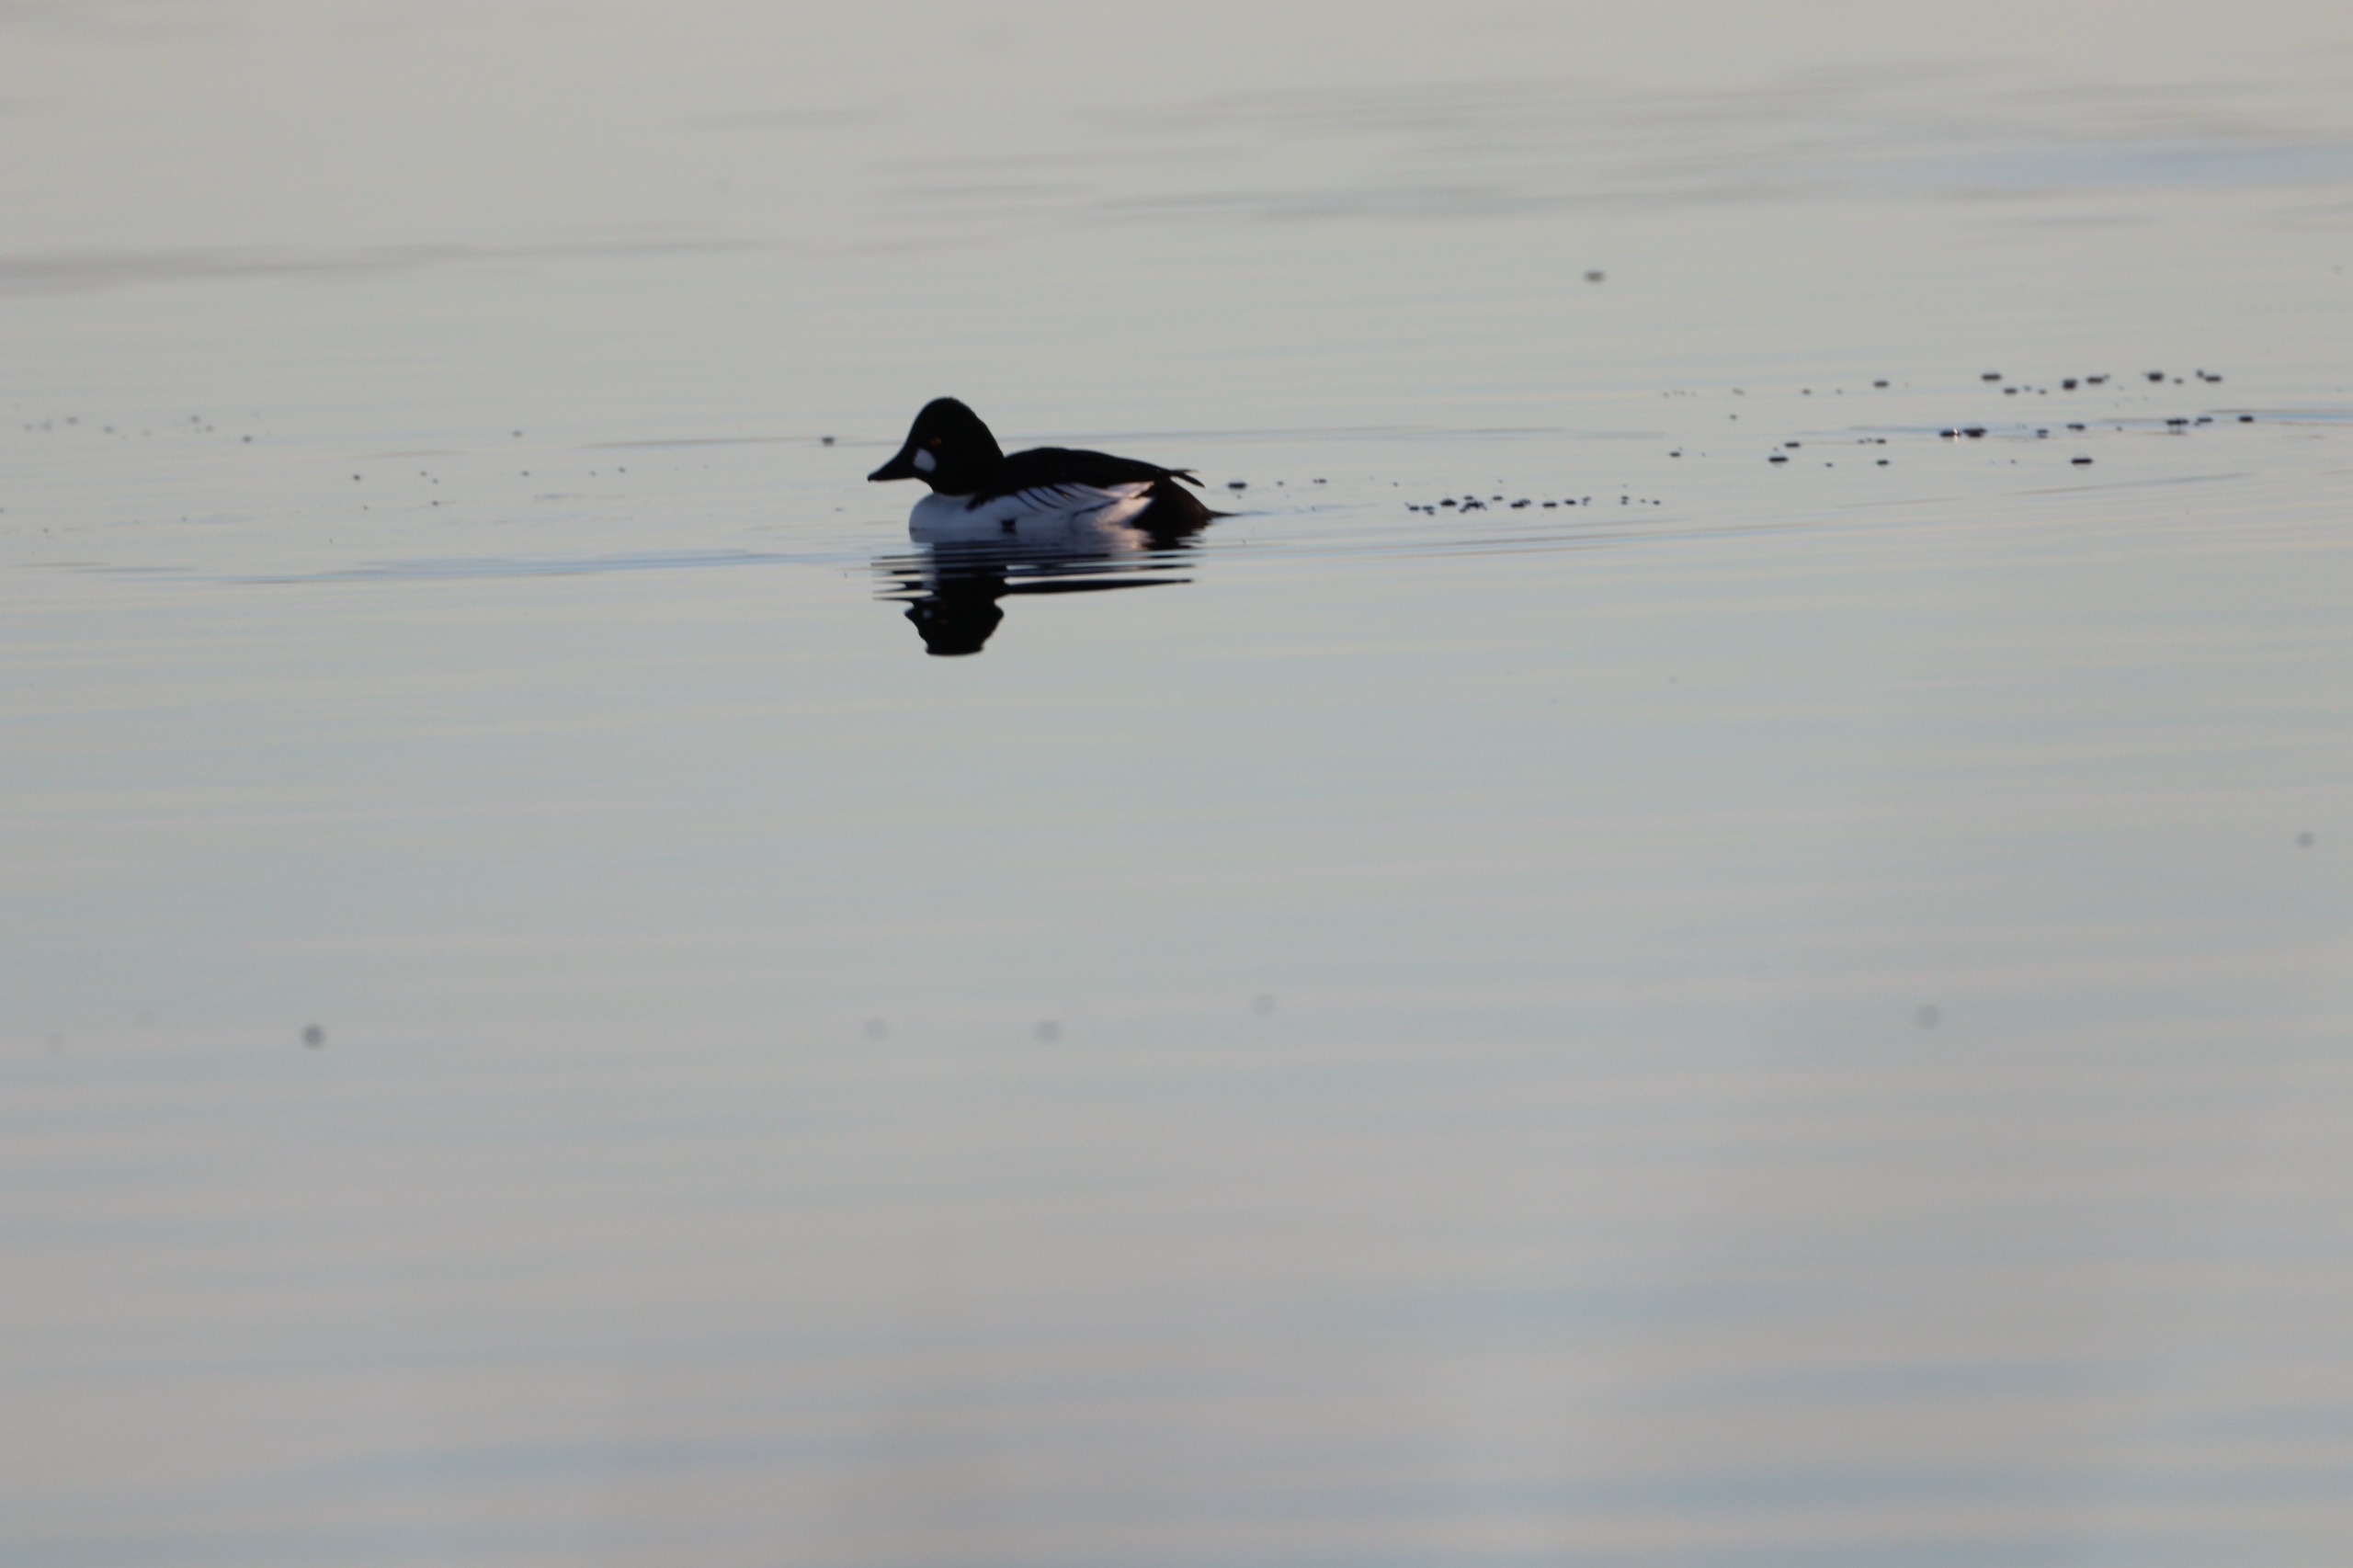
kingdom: Animalia
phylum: Chordata
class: Aves
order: Anseriformes
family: Anatidae
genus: Bucephala
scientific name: Bucephala clangula
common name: Hvinand
